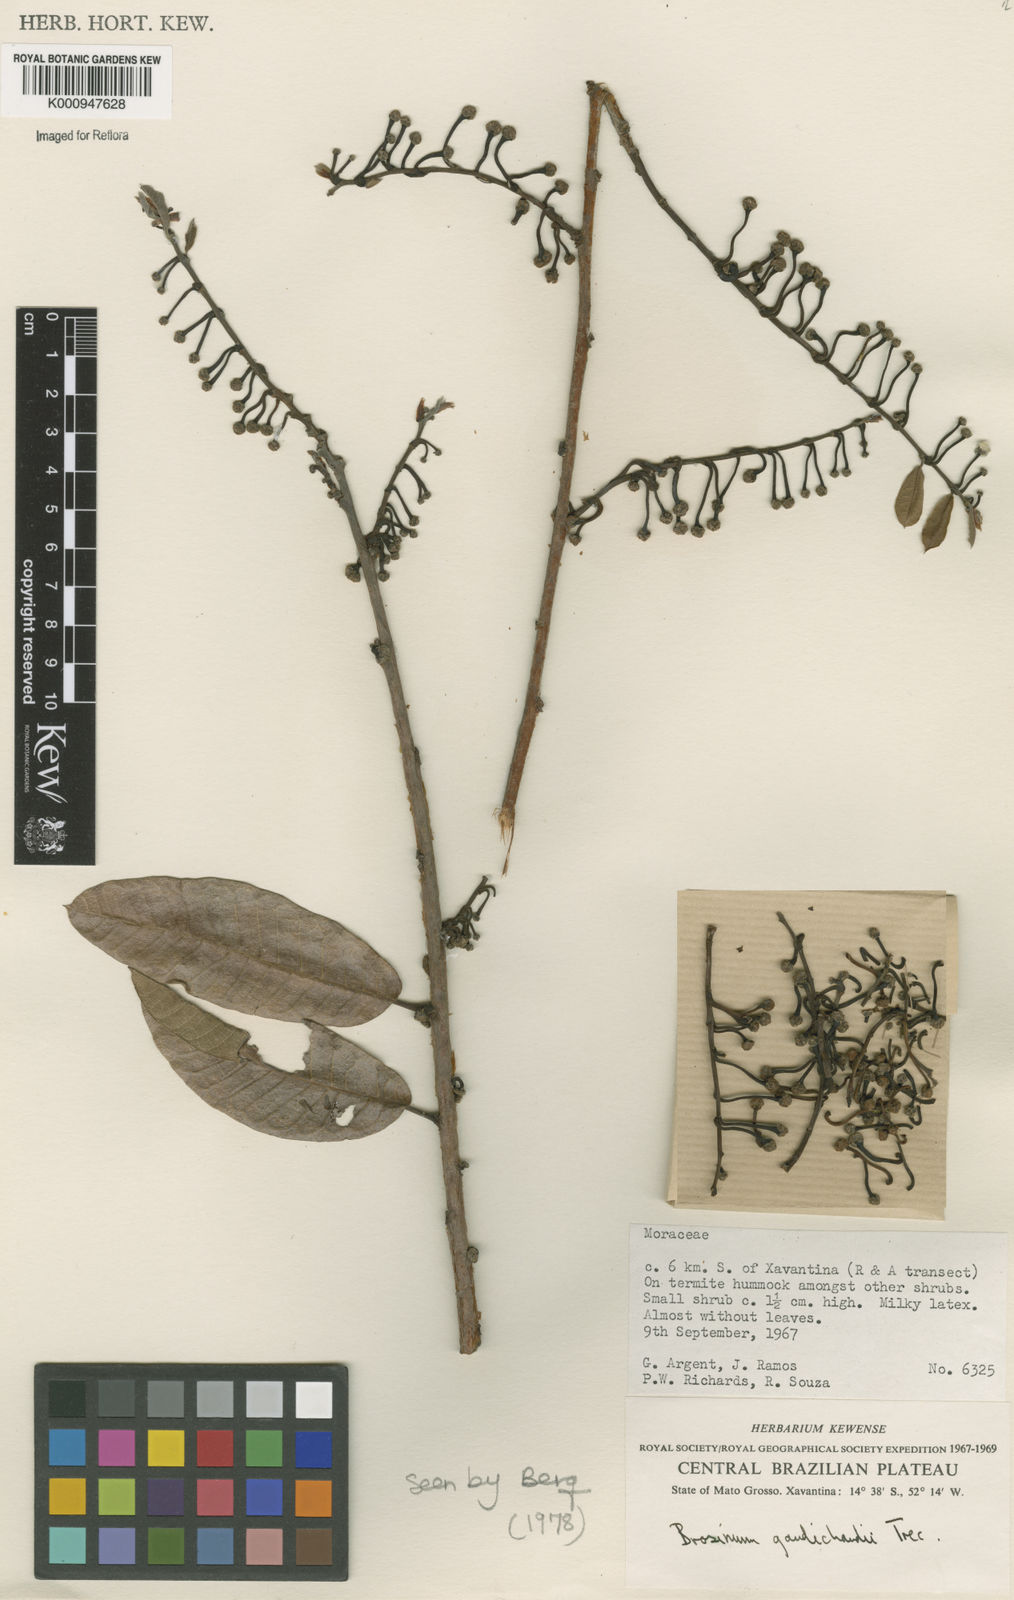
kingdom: Plantae
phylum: Tracheophyta
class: Magnoliopsida
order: Rosales
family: Moraceae
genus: Brosimum
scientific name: Brosimum
